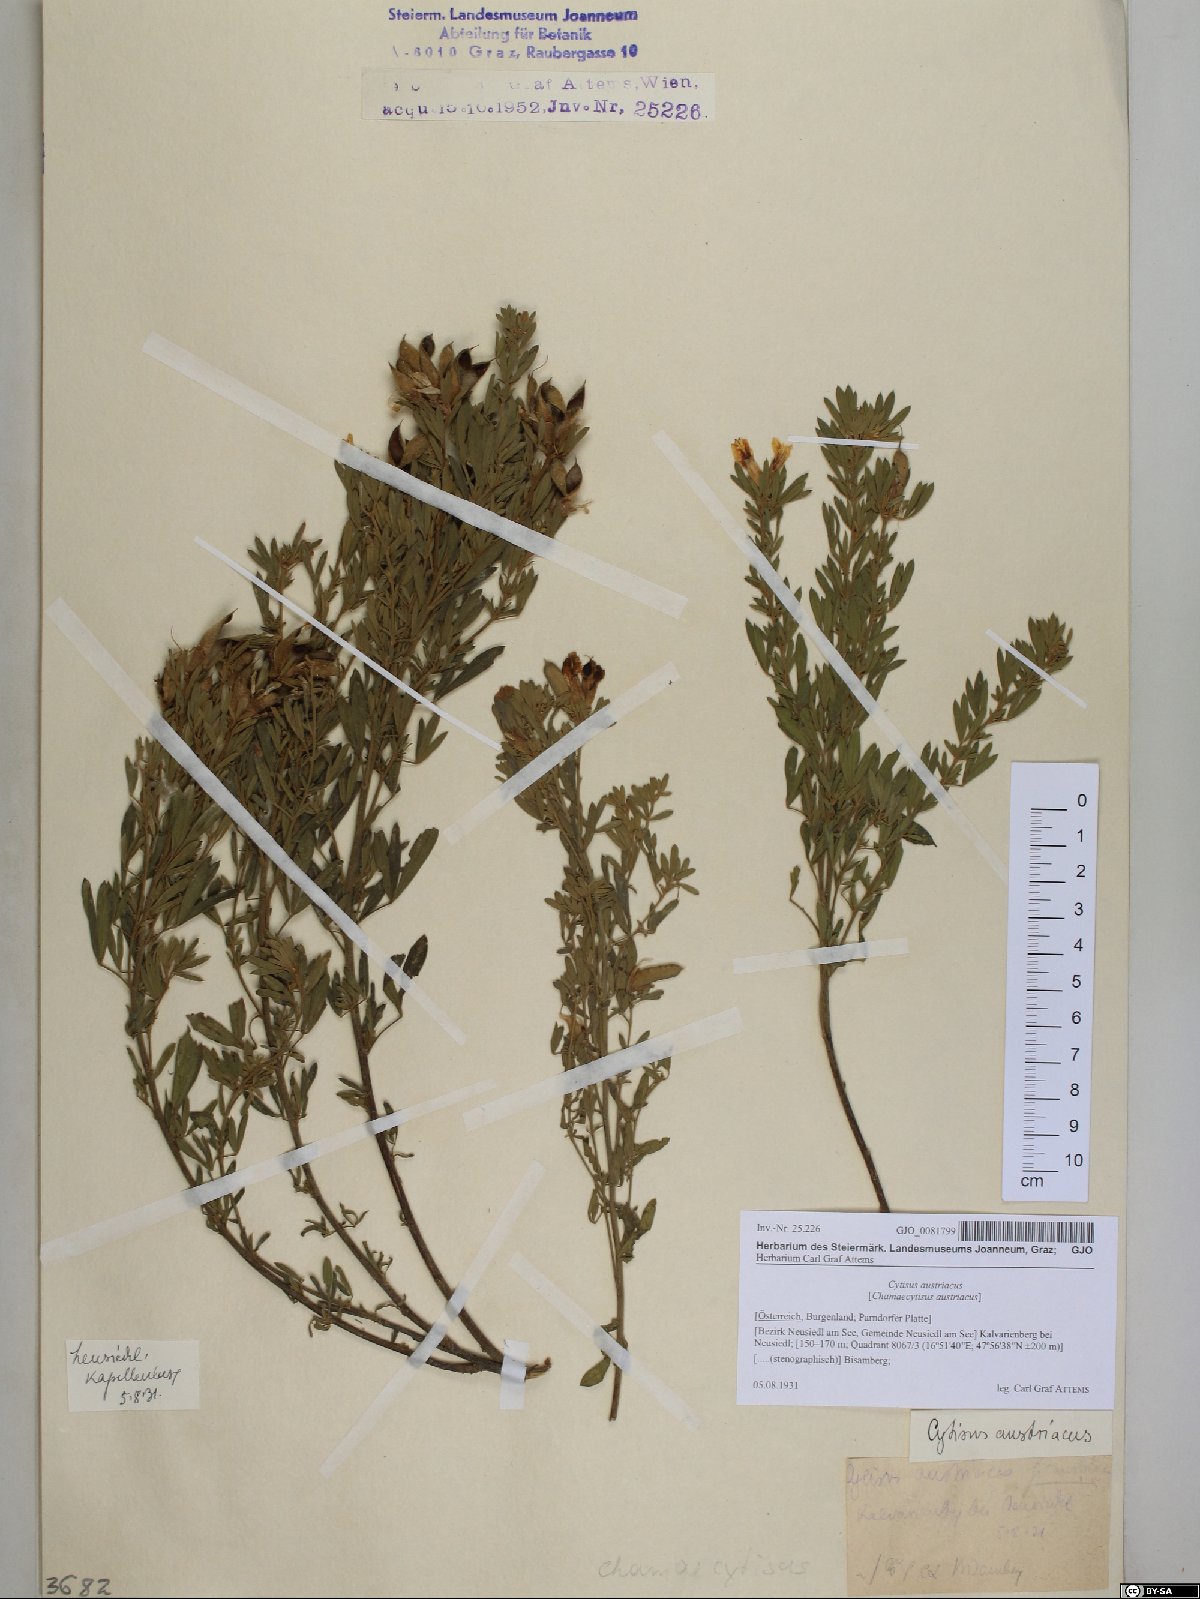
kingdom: Plantae
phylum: Tracheophyta
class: Magnoliopsida
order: Fabales
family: Fabaceae
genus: Chamaecytisus
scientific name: Chamaecytisus austriacus
